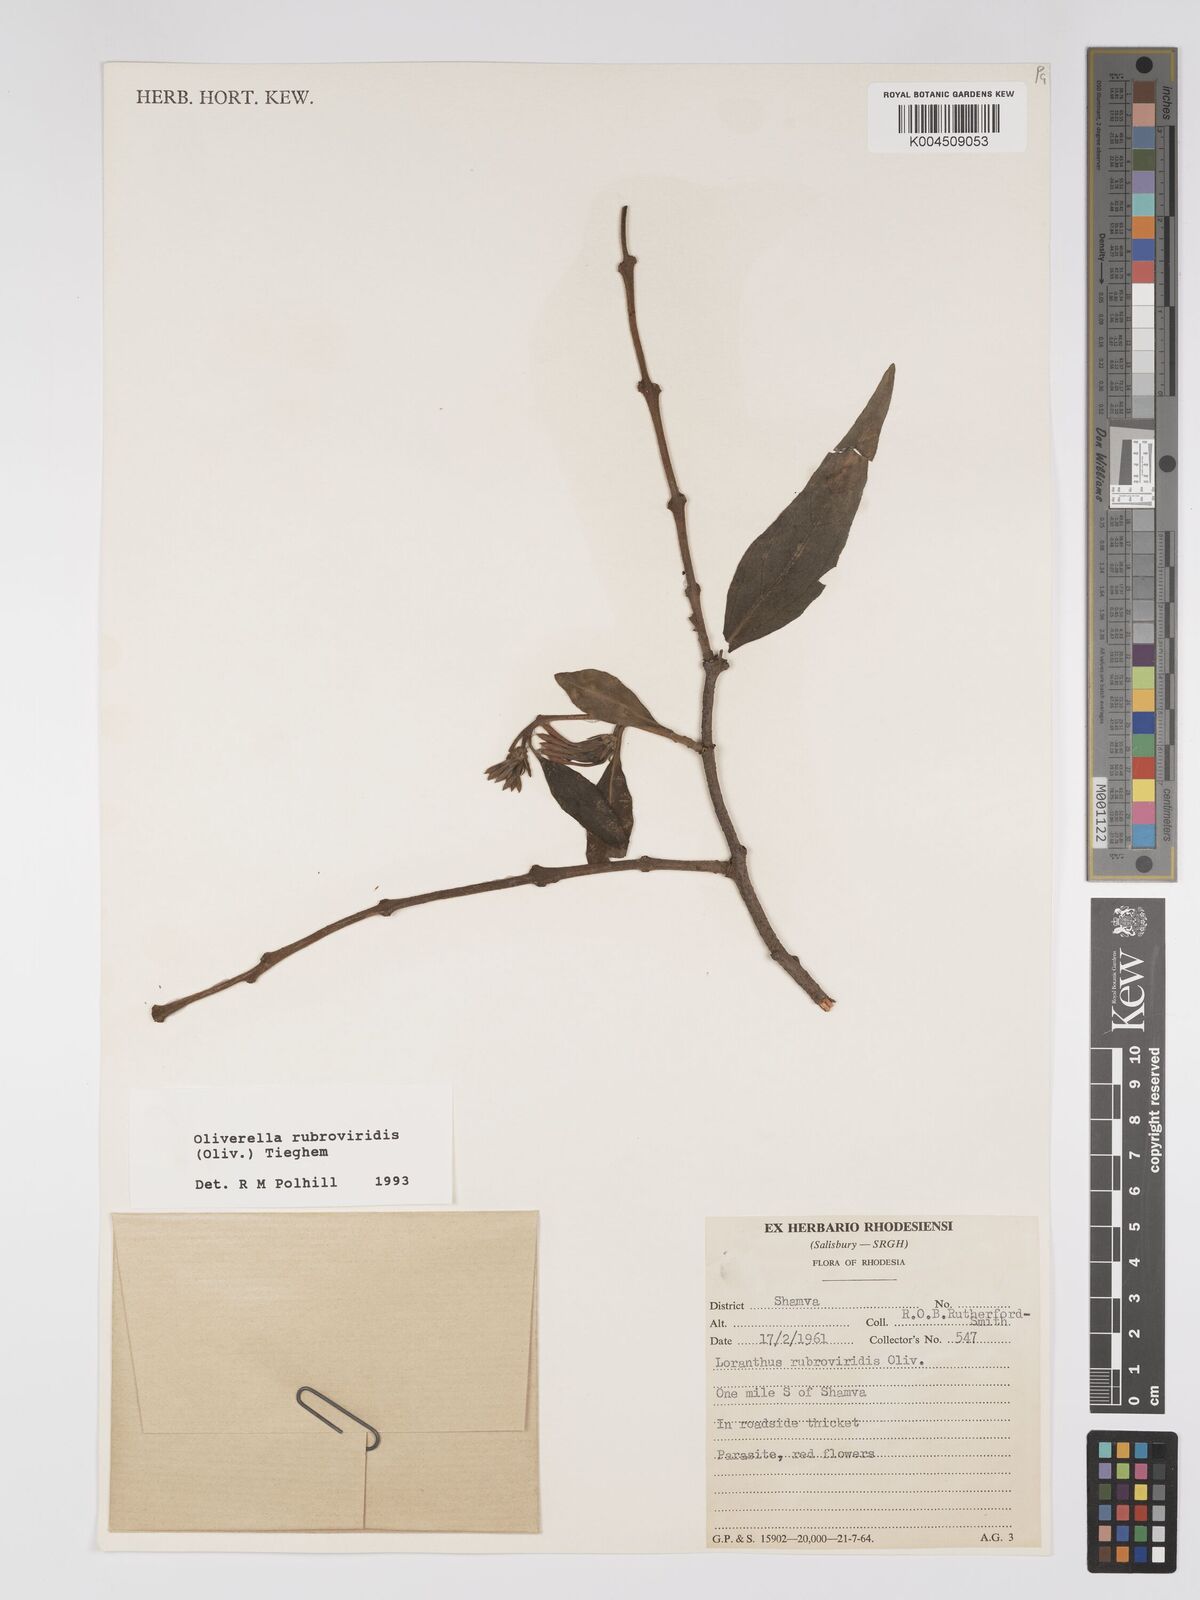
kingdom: Plantae
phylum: Tracheophyta
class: Magnoliopsida
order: Santalales
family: Loranthaceae
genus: Oliverella
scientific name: Oliverella rubroviridis
